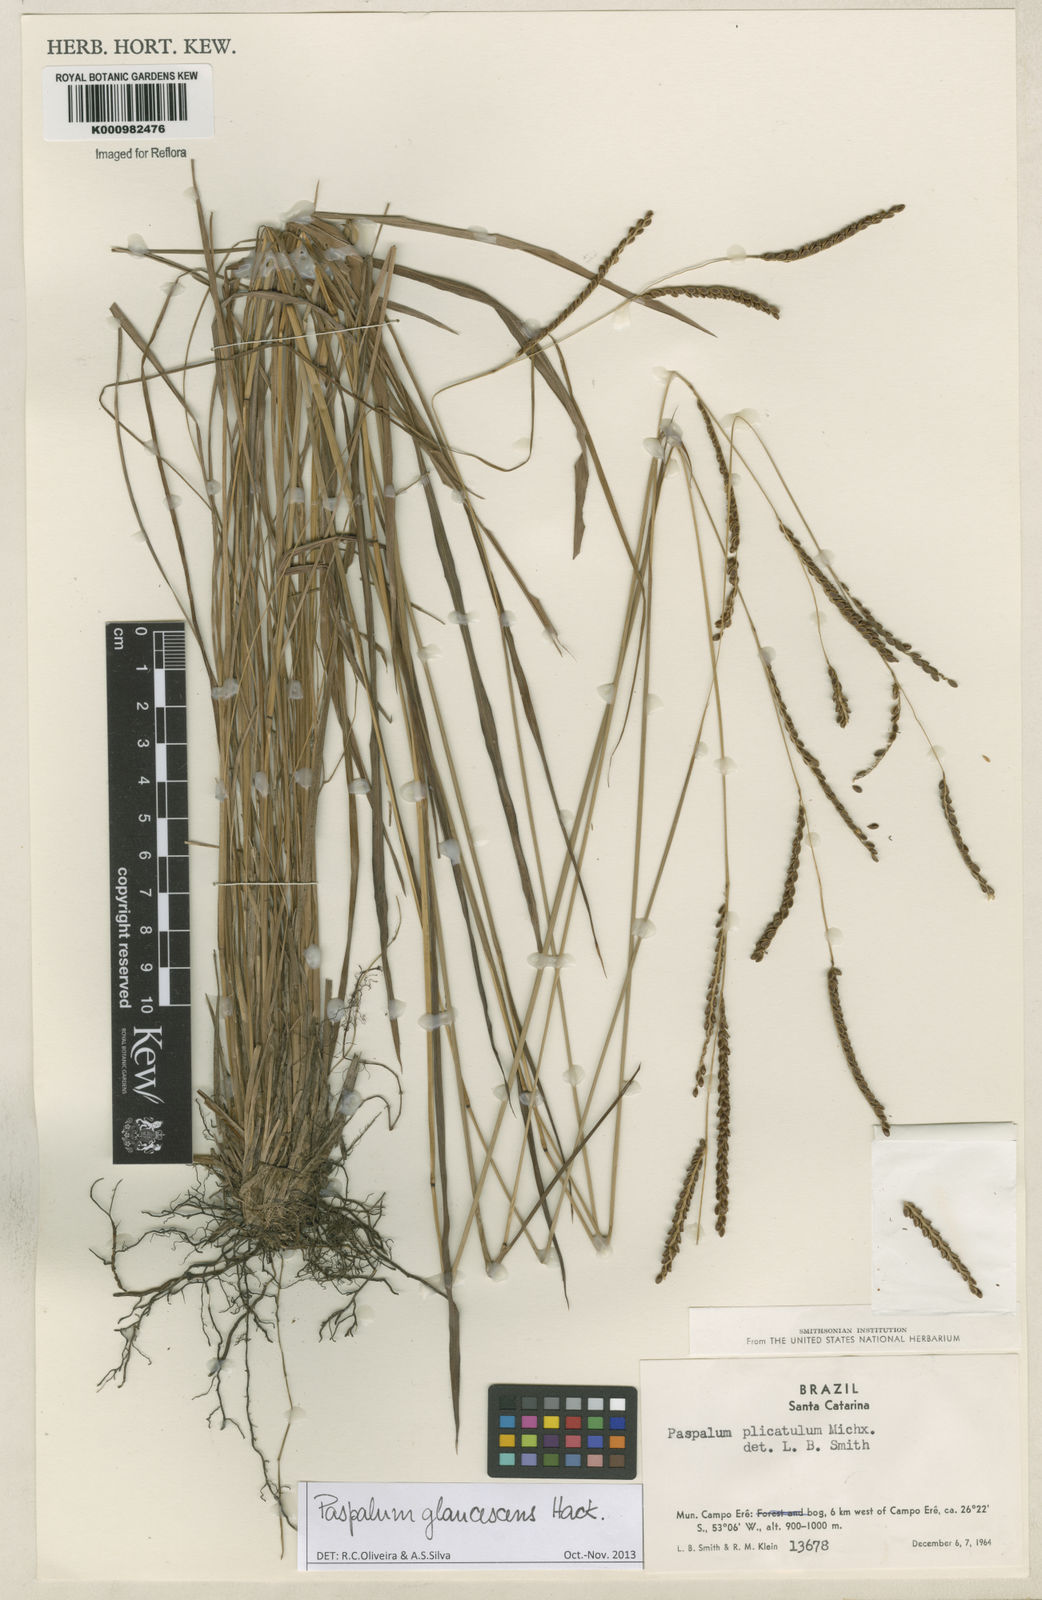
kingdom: Plantae
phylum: Tracheophyta
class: Liliopsida
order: Poales
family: Poaceae
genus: Paspalum
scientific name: Paspalum glaucescens
